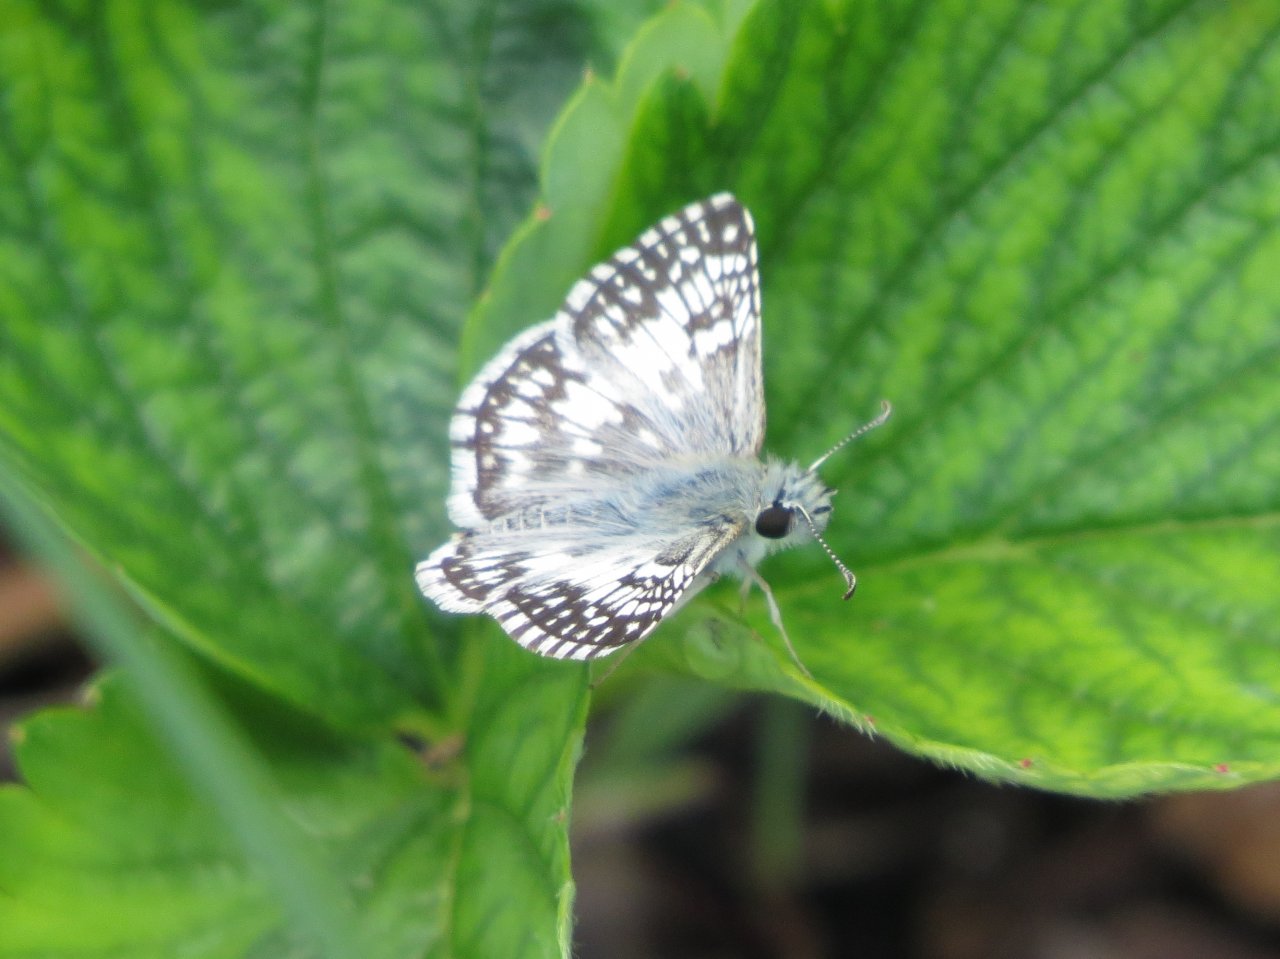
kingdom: Animalia
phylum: Arthropoda
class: Insecta
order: Lepidoptera
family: Hesperiidae
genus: Pyrgus
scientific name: Pyrgus communis
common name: White Checkered-Skipper
